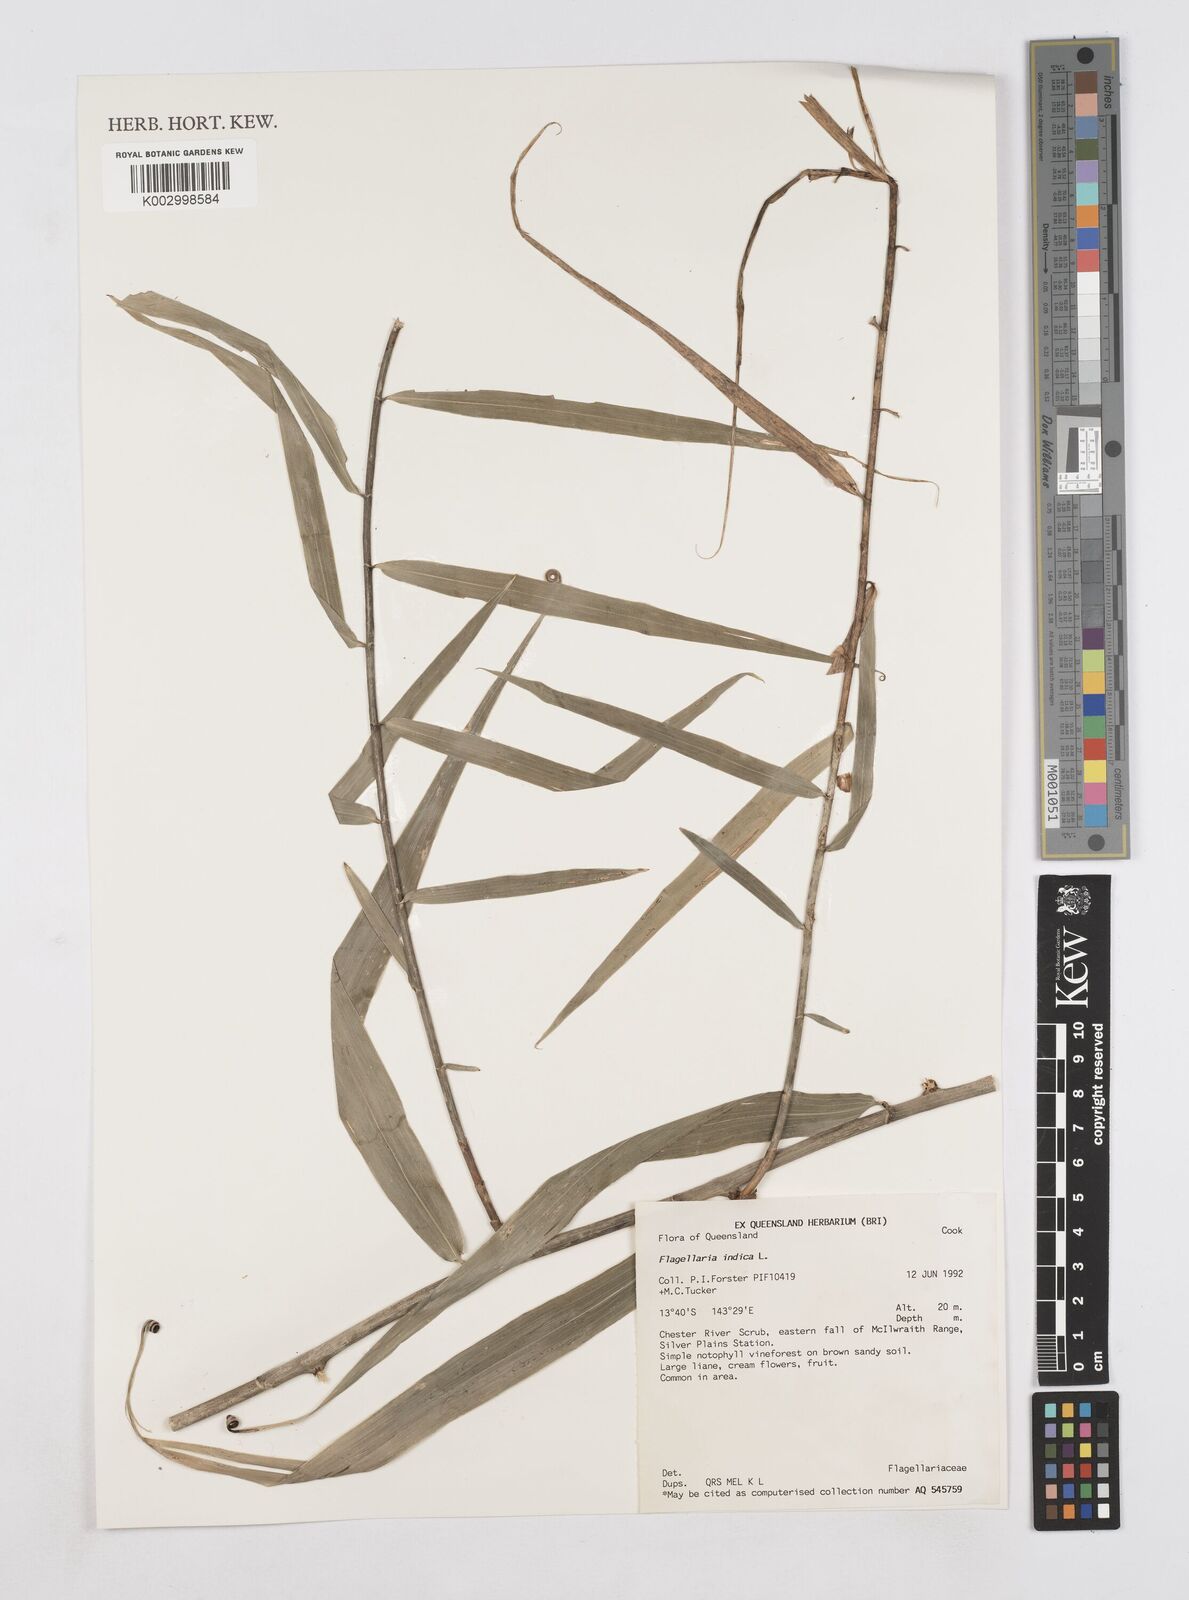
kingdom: Plantae
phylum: Tracheophyta
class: Liliopsida
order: Poales
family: Flagellariaceae
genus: Flagellaria
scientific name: Flagellaria indica
